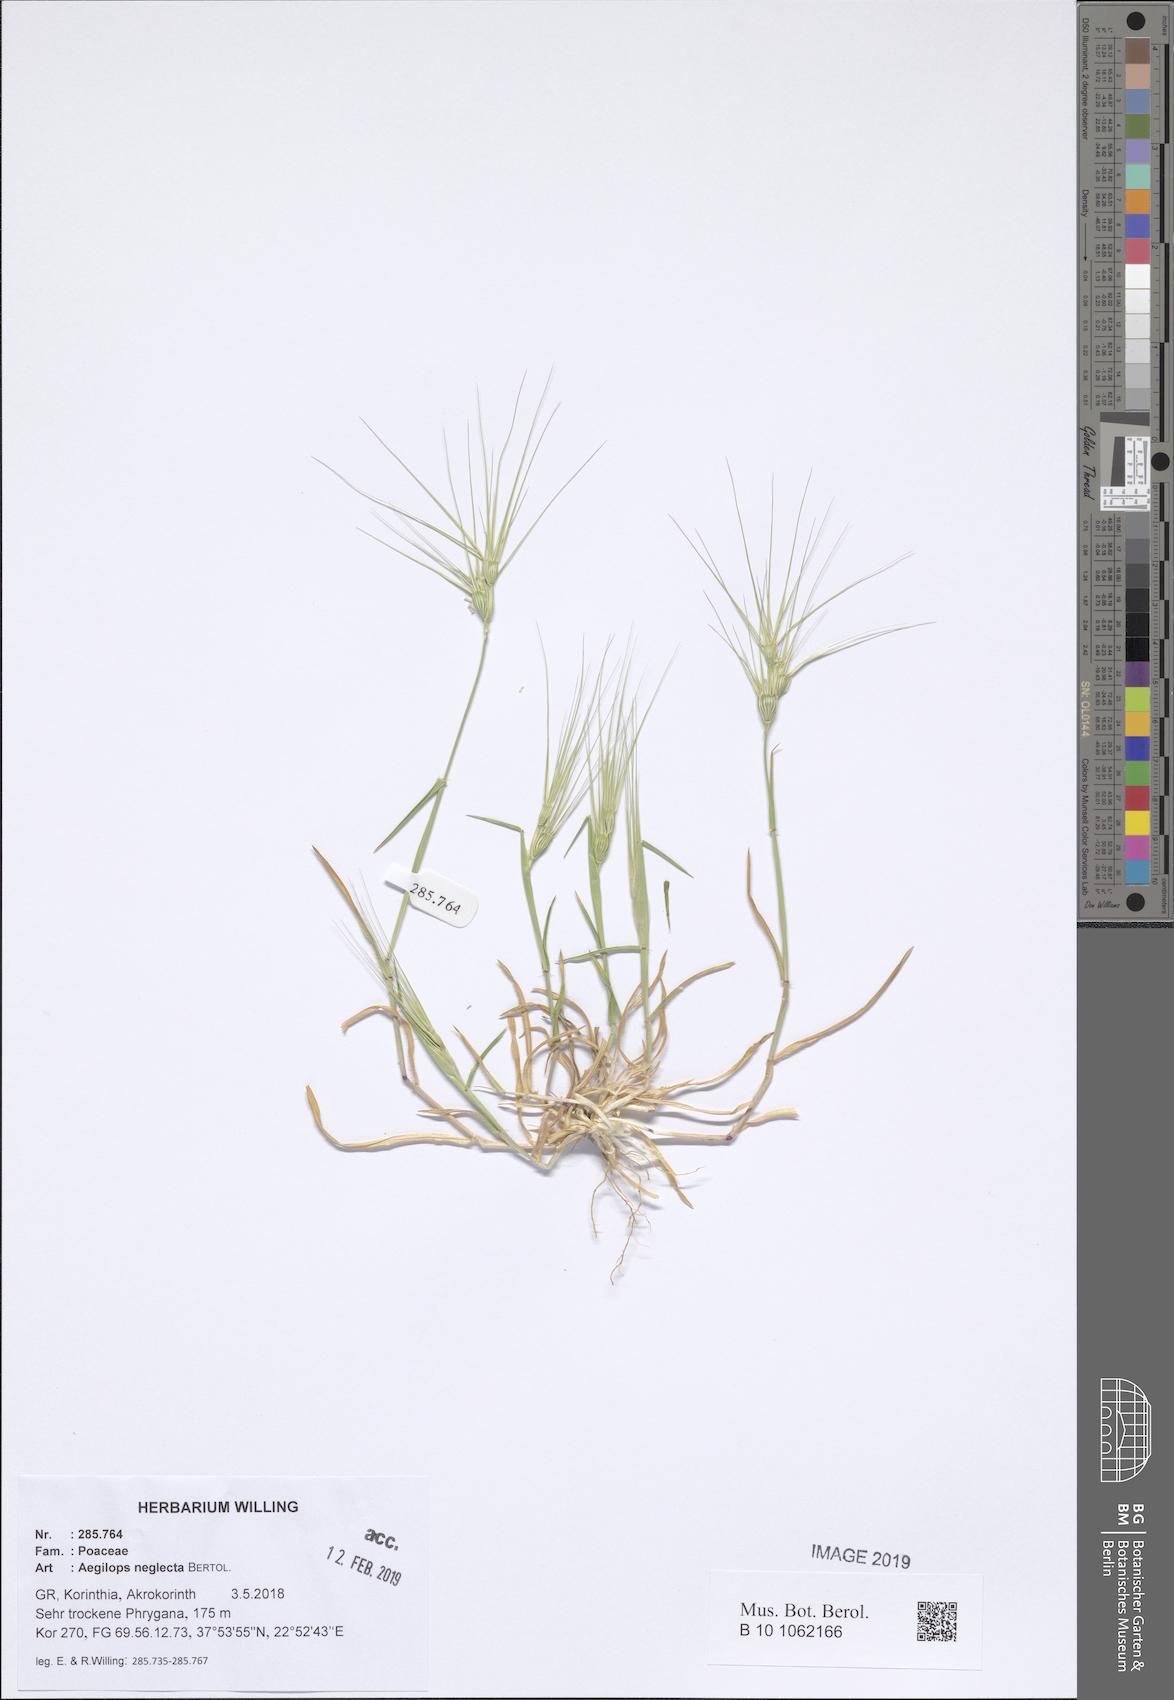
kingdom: Plantae
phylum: Tracheophyta
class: Liliopsida
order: Poales
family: Poaceae
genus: Aegilops
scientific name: Aegilops neglecta
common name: Three-awn goat grass
